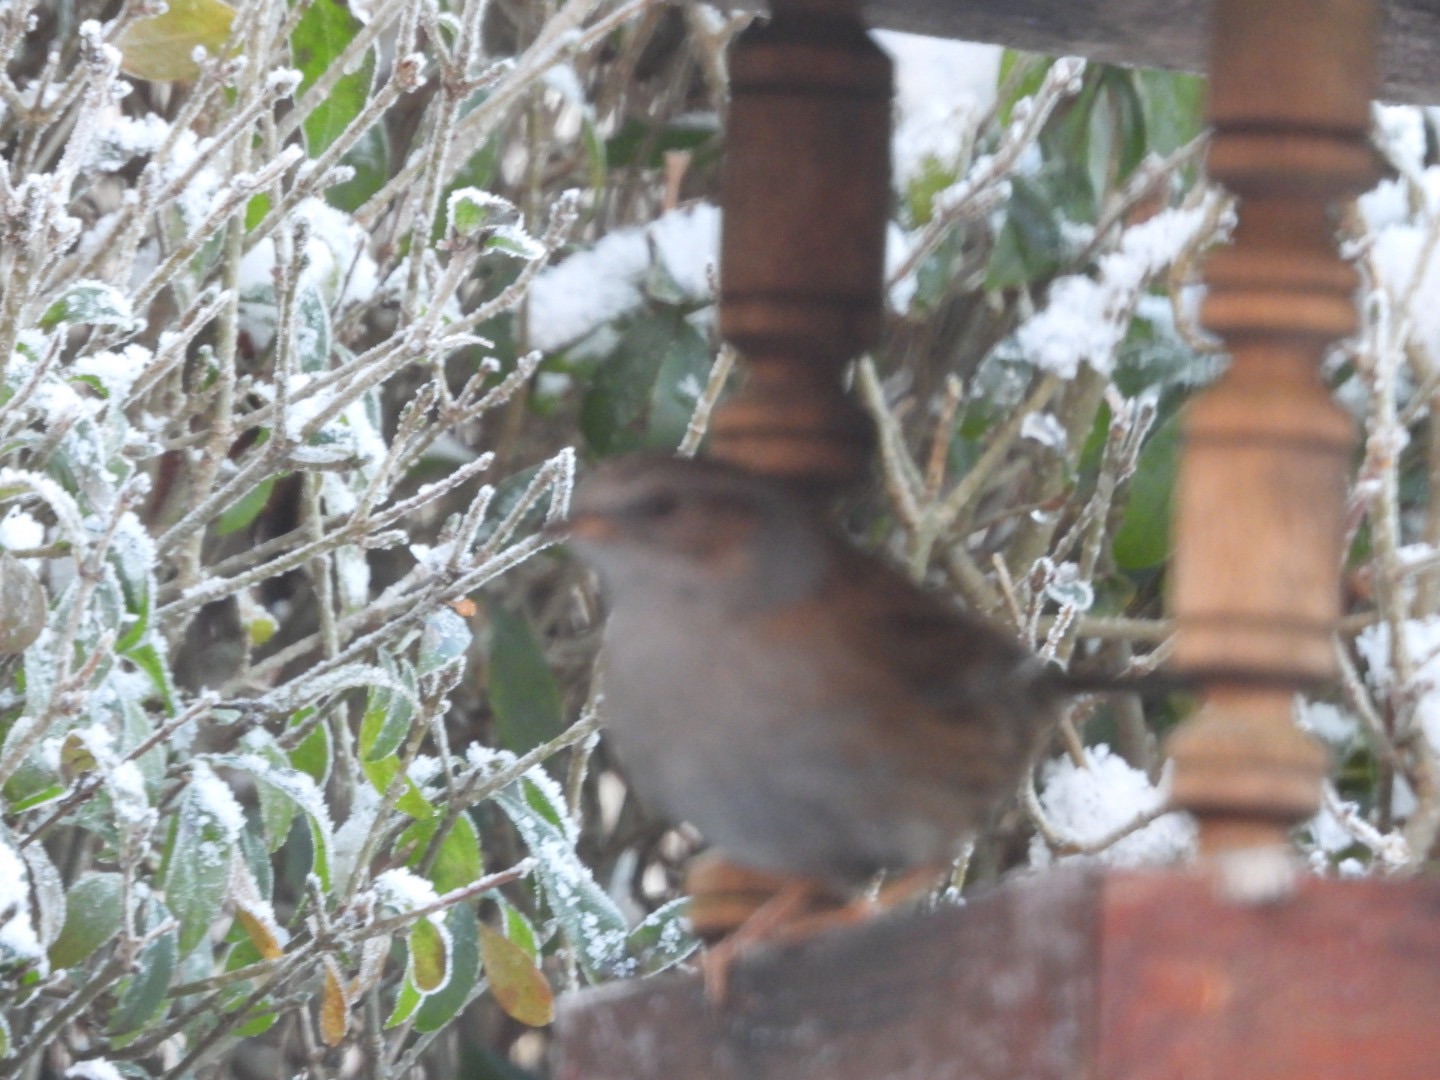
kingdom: Animalia
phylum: Chordata
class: Aves
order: Passeriformes
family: Prunellidae
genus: Prunella
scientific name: Prunella modularis
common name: Jernspurv
